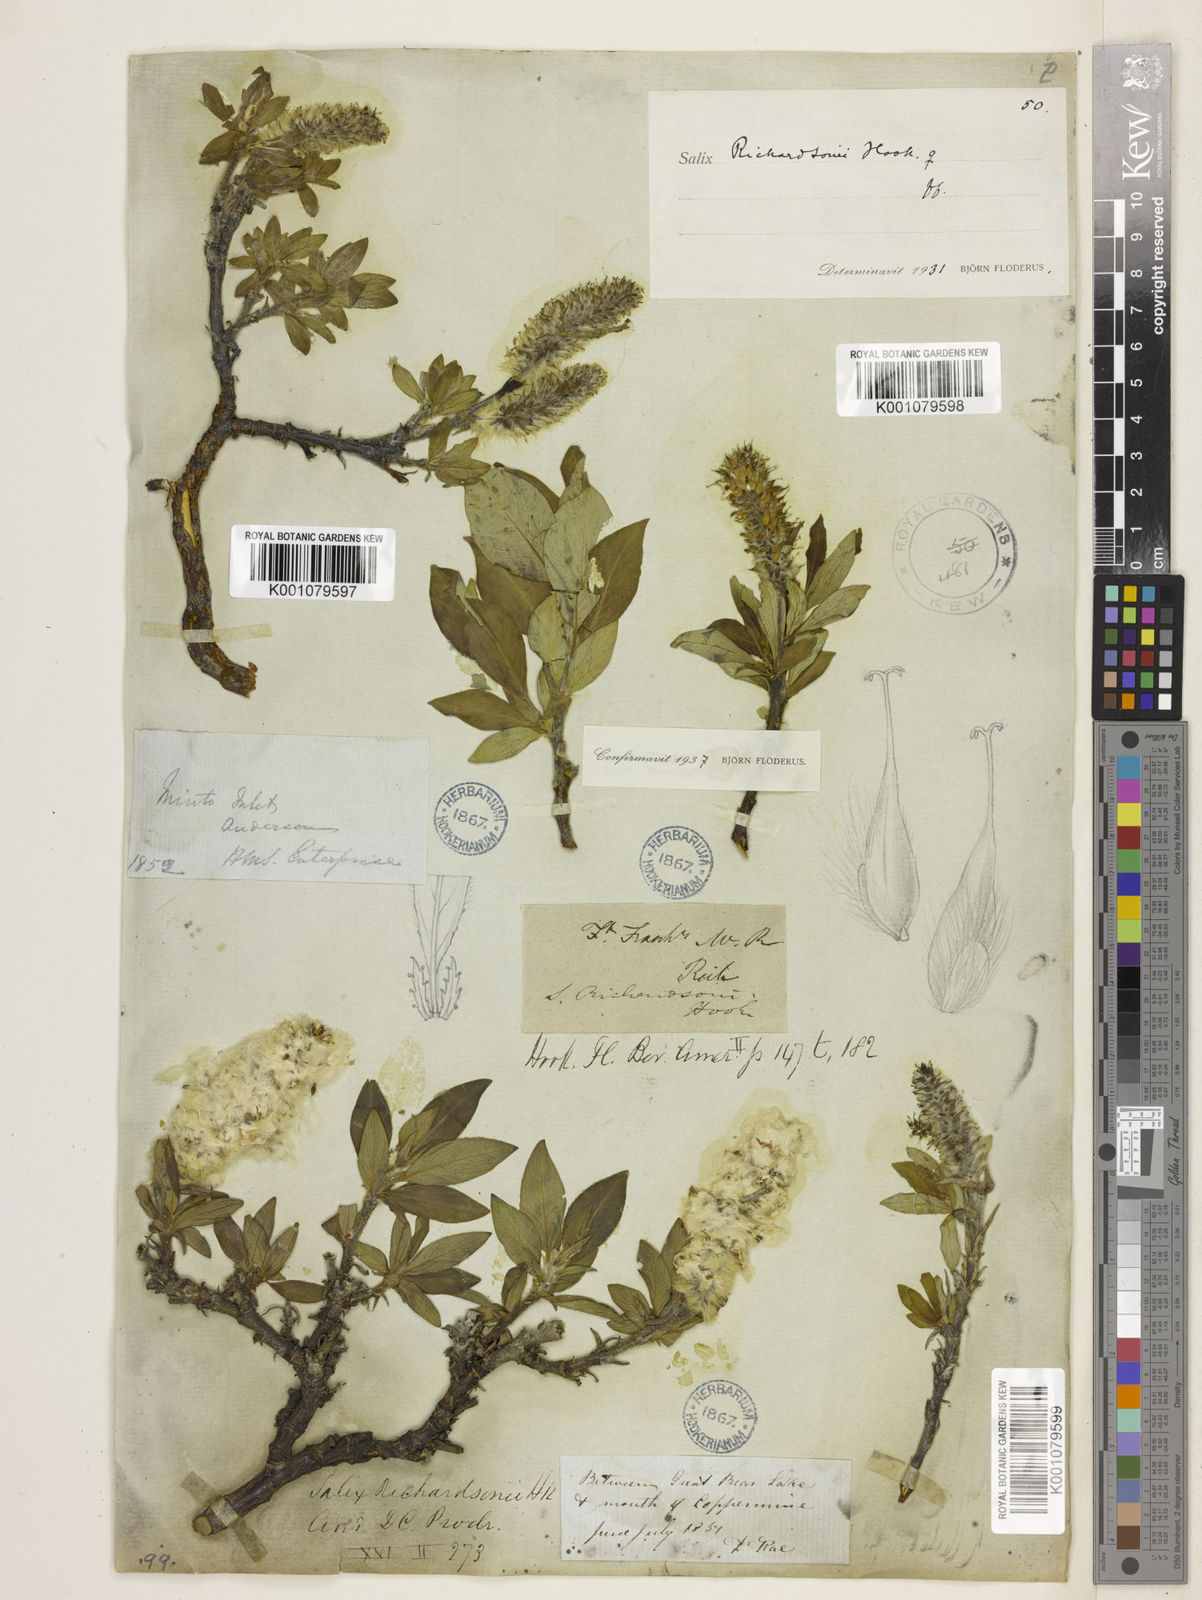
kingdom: Plantae
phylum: Tracheophyta
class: Magnoliopsida
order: Malpighiales
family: Salicaceae
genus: Salix
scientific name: Salix richardsonii
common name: Richardson’s willow
